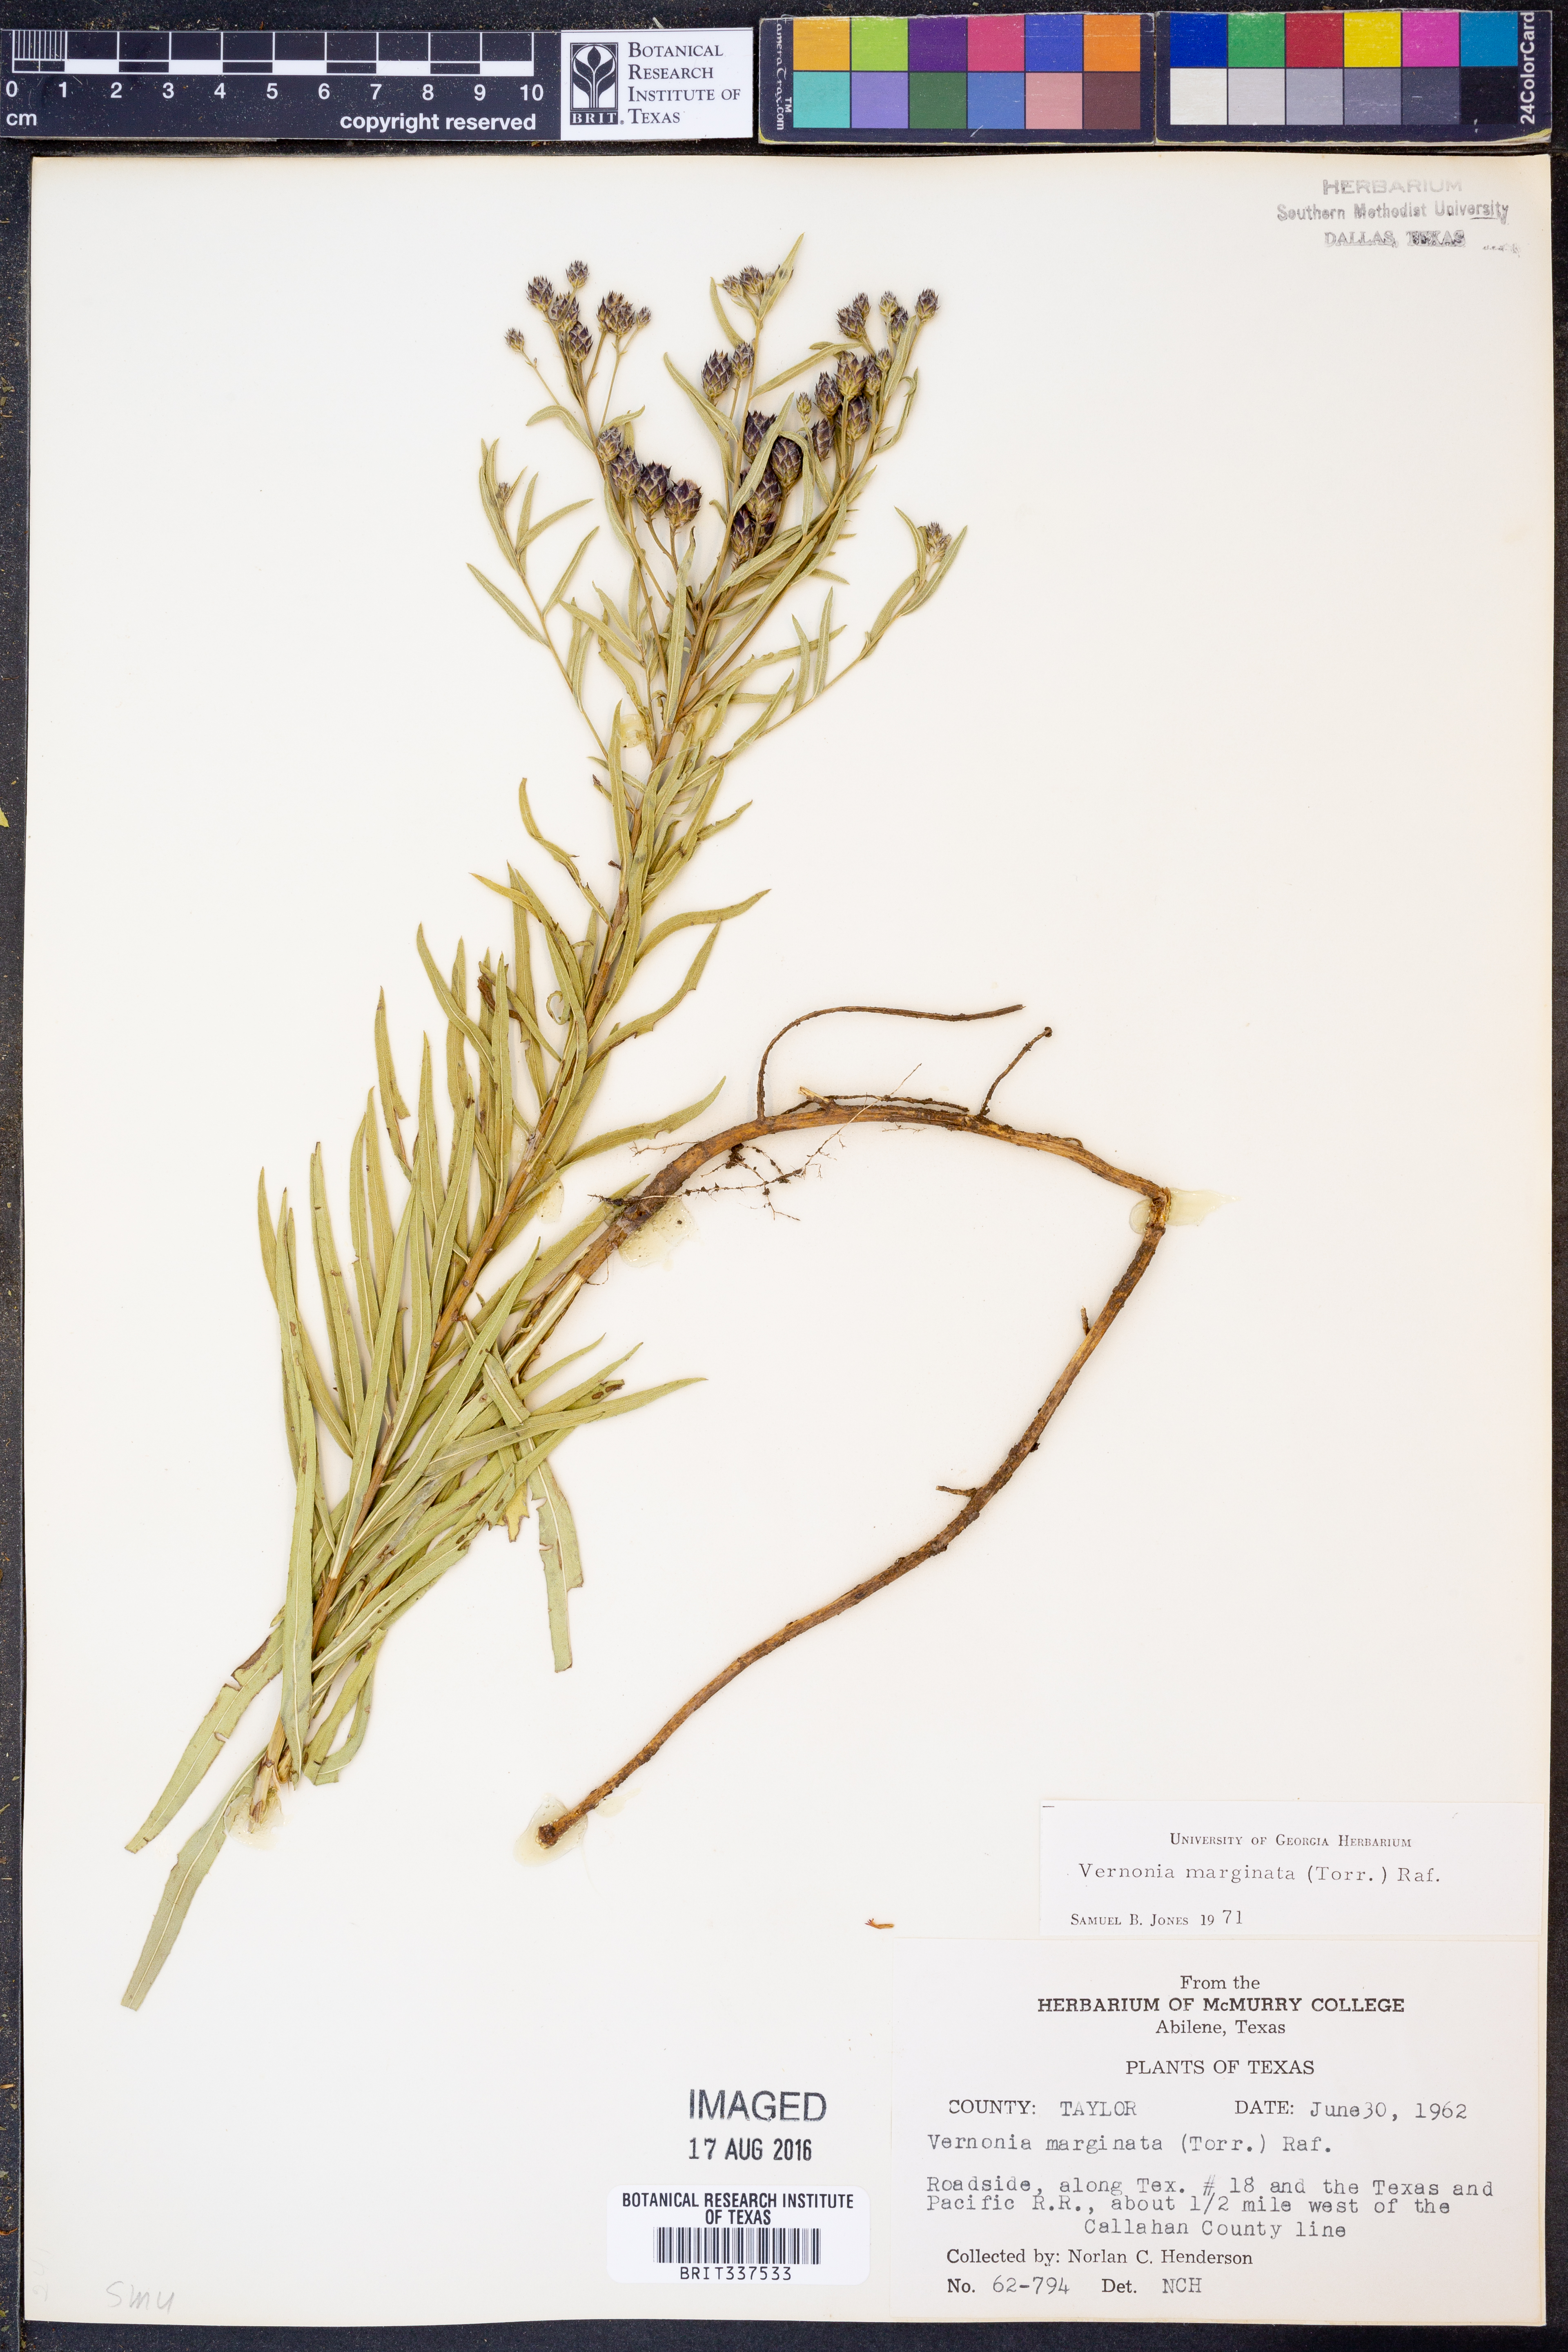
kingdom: Plantae
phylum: Tracheophyta
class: Magnoliopsida
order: Asterales
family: Asteraceae
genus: Vernonia
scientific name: Vernonia marginata
